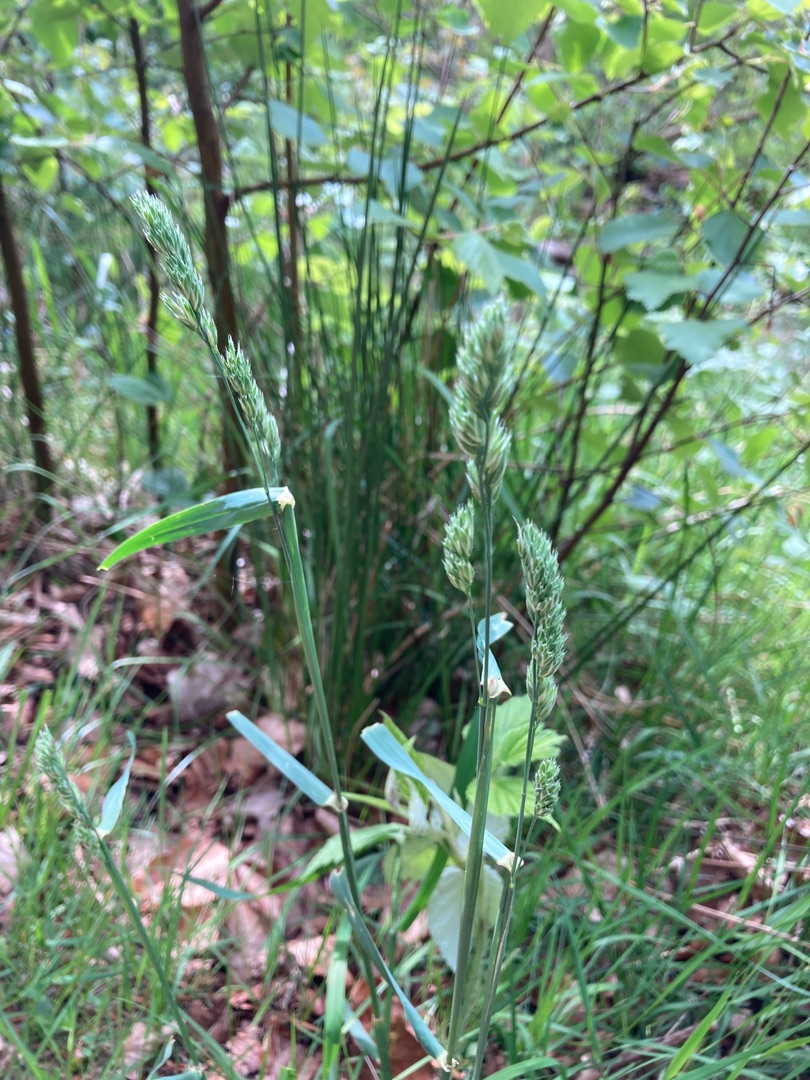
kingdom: Plantae
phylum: Tracheophyta
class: Liliopsida
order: Poales
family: Poaceae
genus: Dactylis
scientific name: Dactylis glomerata
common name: Almindelig hundegræs
